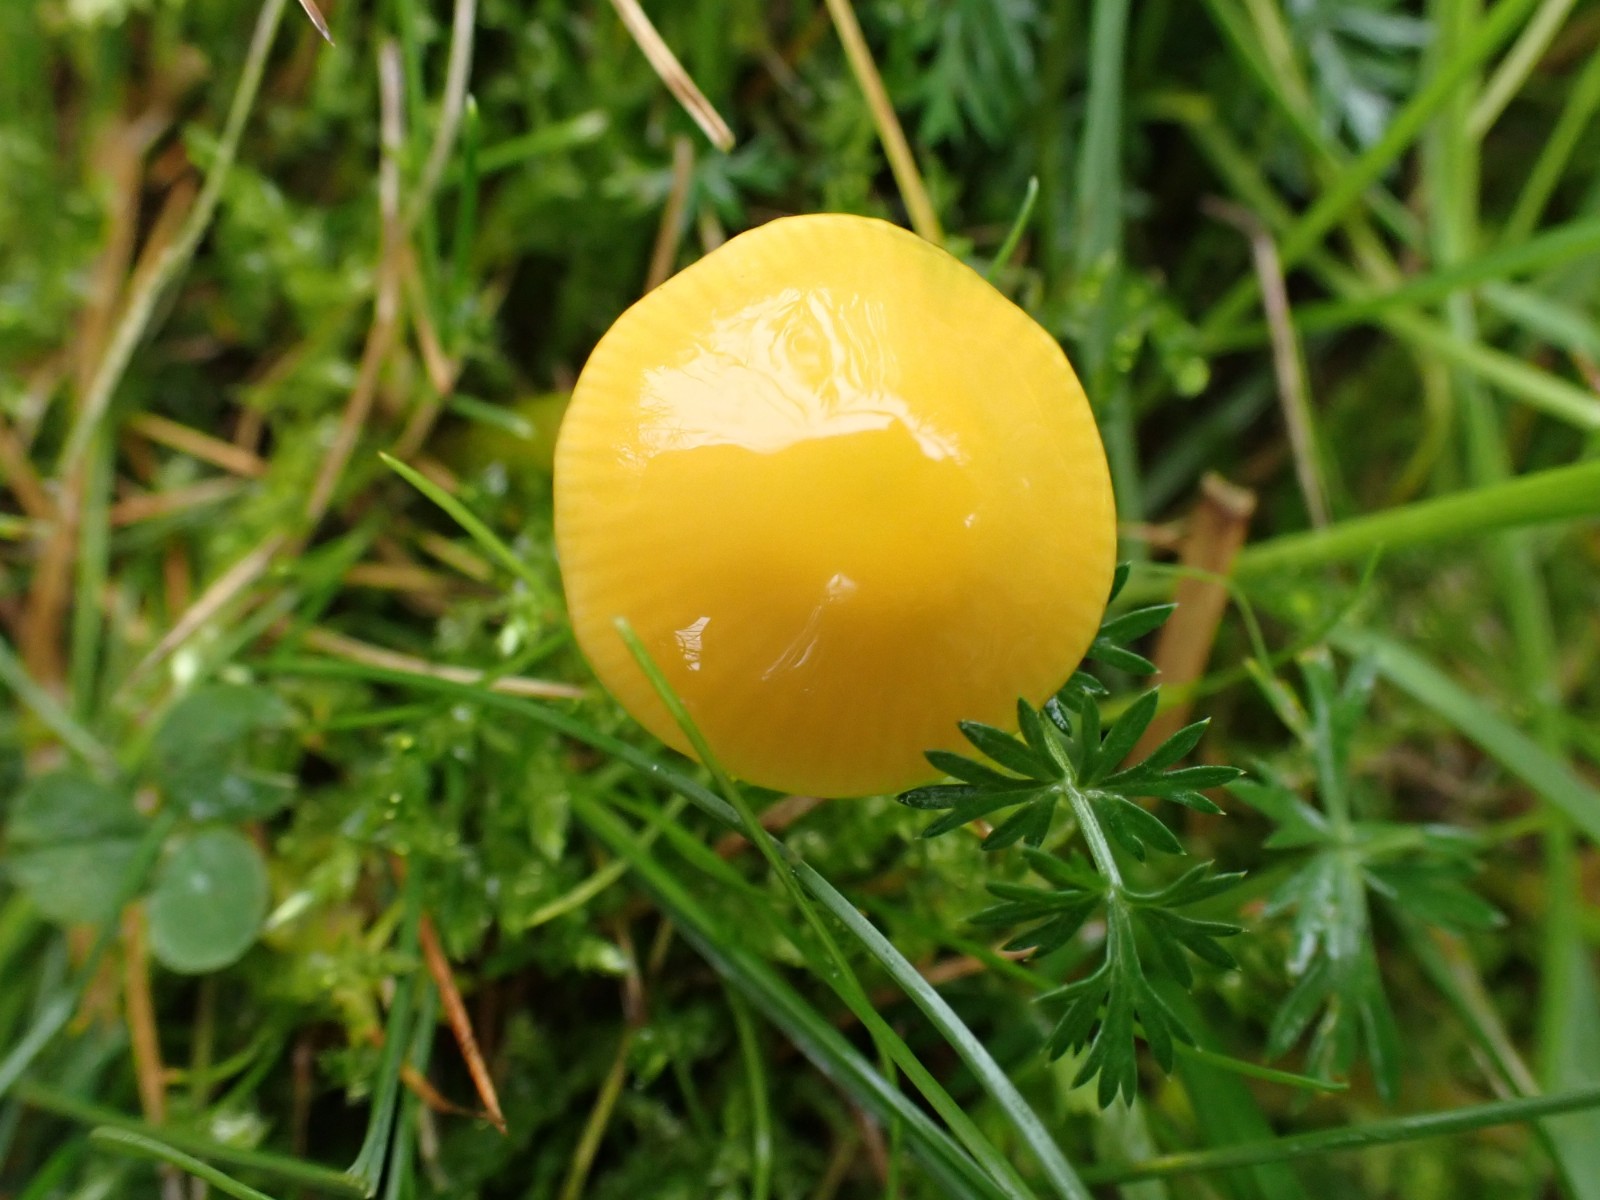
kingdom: Fungi
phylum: Basidiomycota
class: Agaricomycetes
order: Agaricales
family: Hygrophoraceae
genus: Gliophorus
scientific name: Gliophorus psittacinus
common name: papegøje-vokshat
